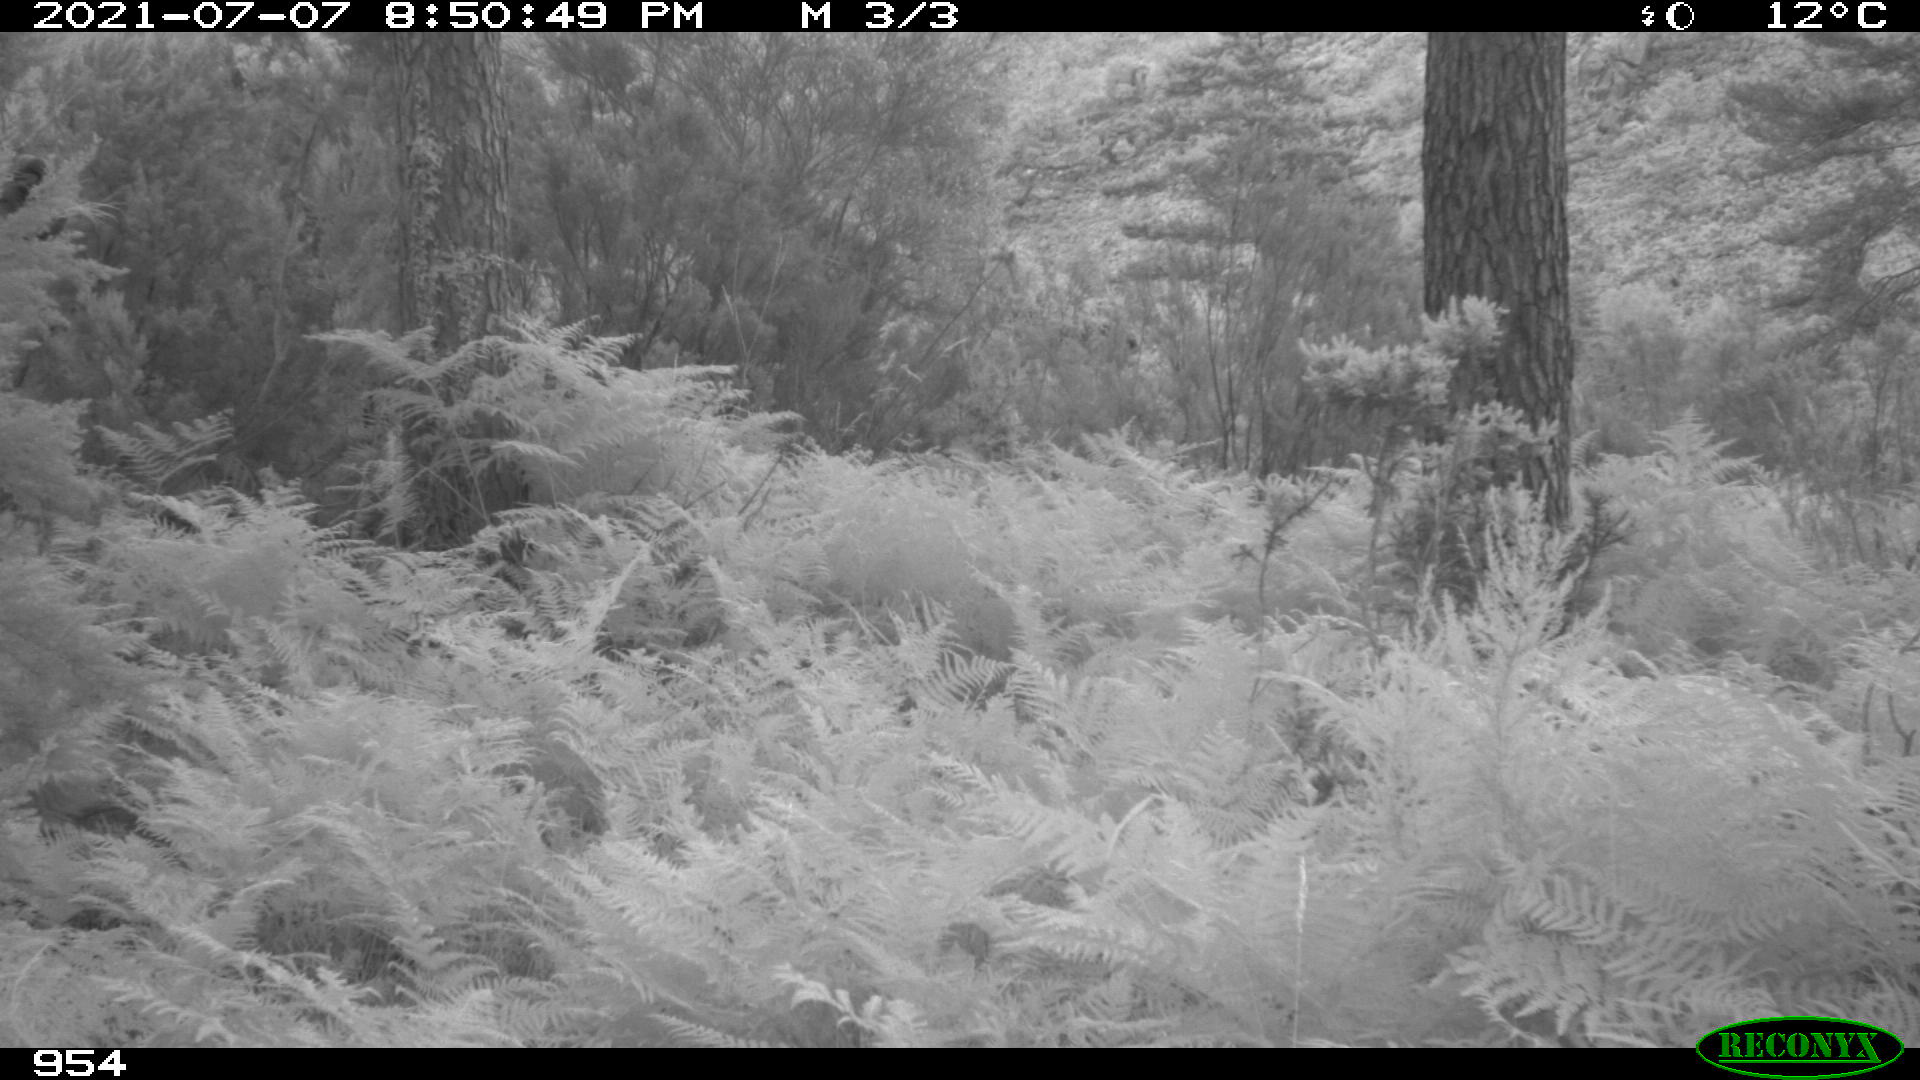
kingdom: Animalia
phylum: Chordata
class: Mammalia
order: Perissodactyla
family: Equidae
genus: Equus
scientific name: Equus caballus
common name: Horse
